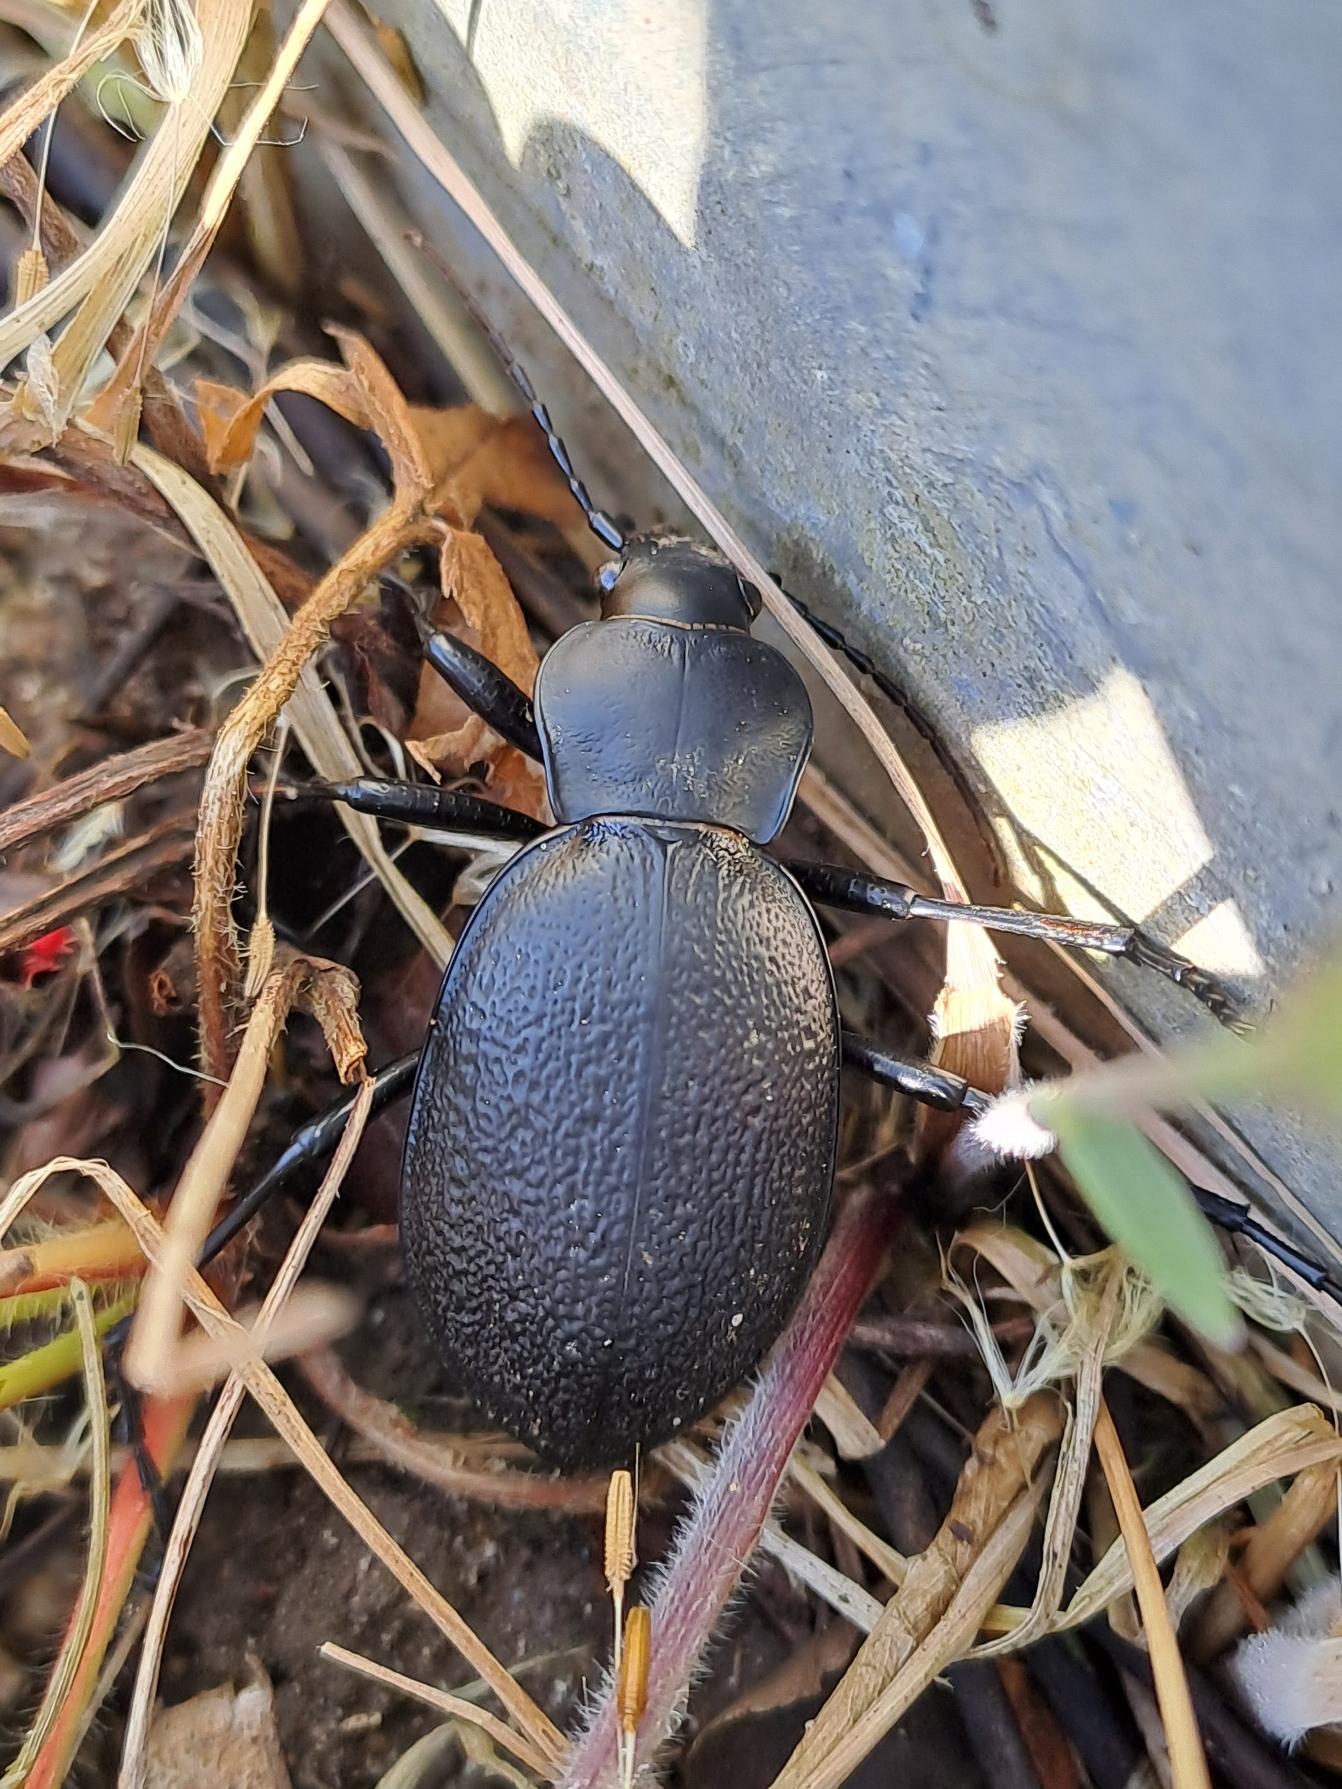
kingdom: Animalia
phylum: Arthropoda
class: Insecta
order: Coleoptera
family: Carabidae
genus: Carabus
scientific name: Carabus coriaceus
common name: Læderløber
